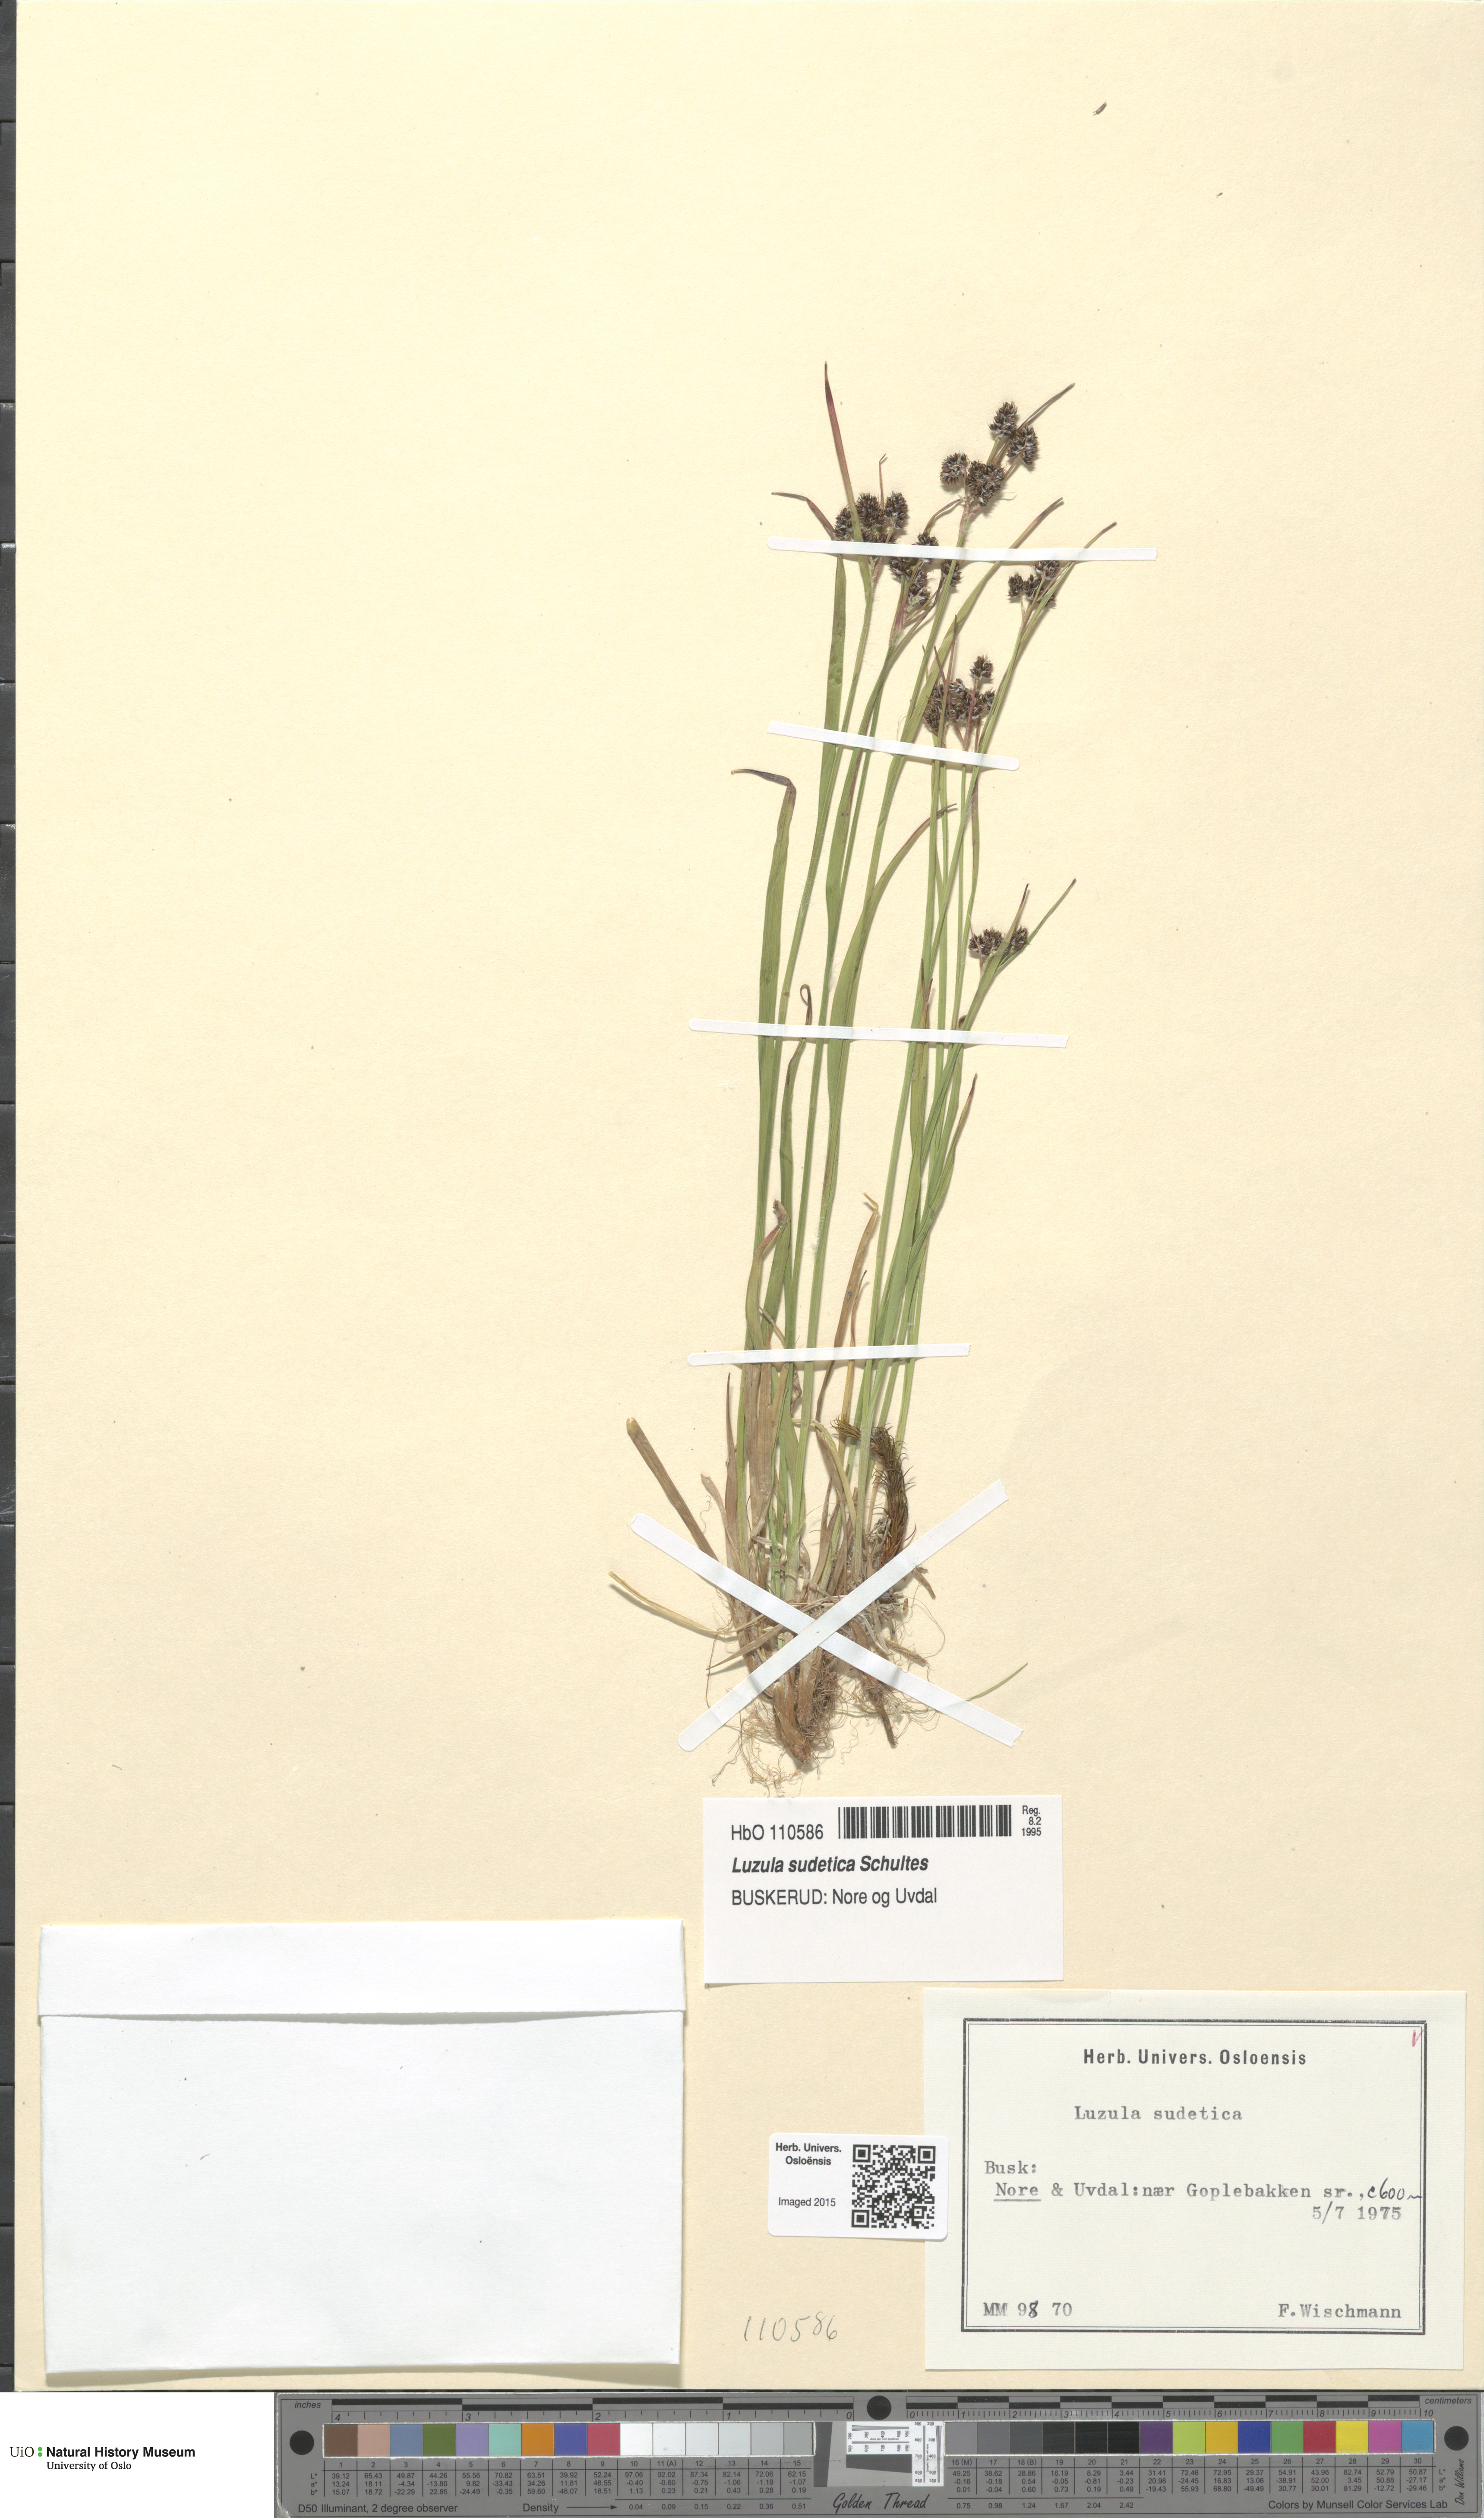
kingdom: Plantae
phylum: Tracheophyta
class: Liliopsida
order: Poales
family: Juncaceae
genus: Luzula
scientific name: Luzula sudetica
